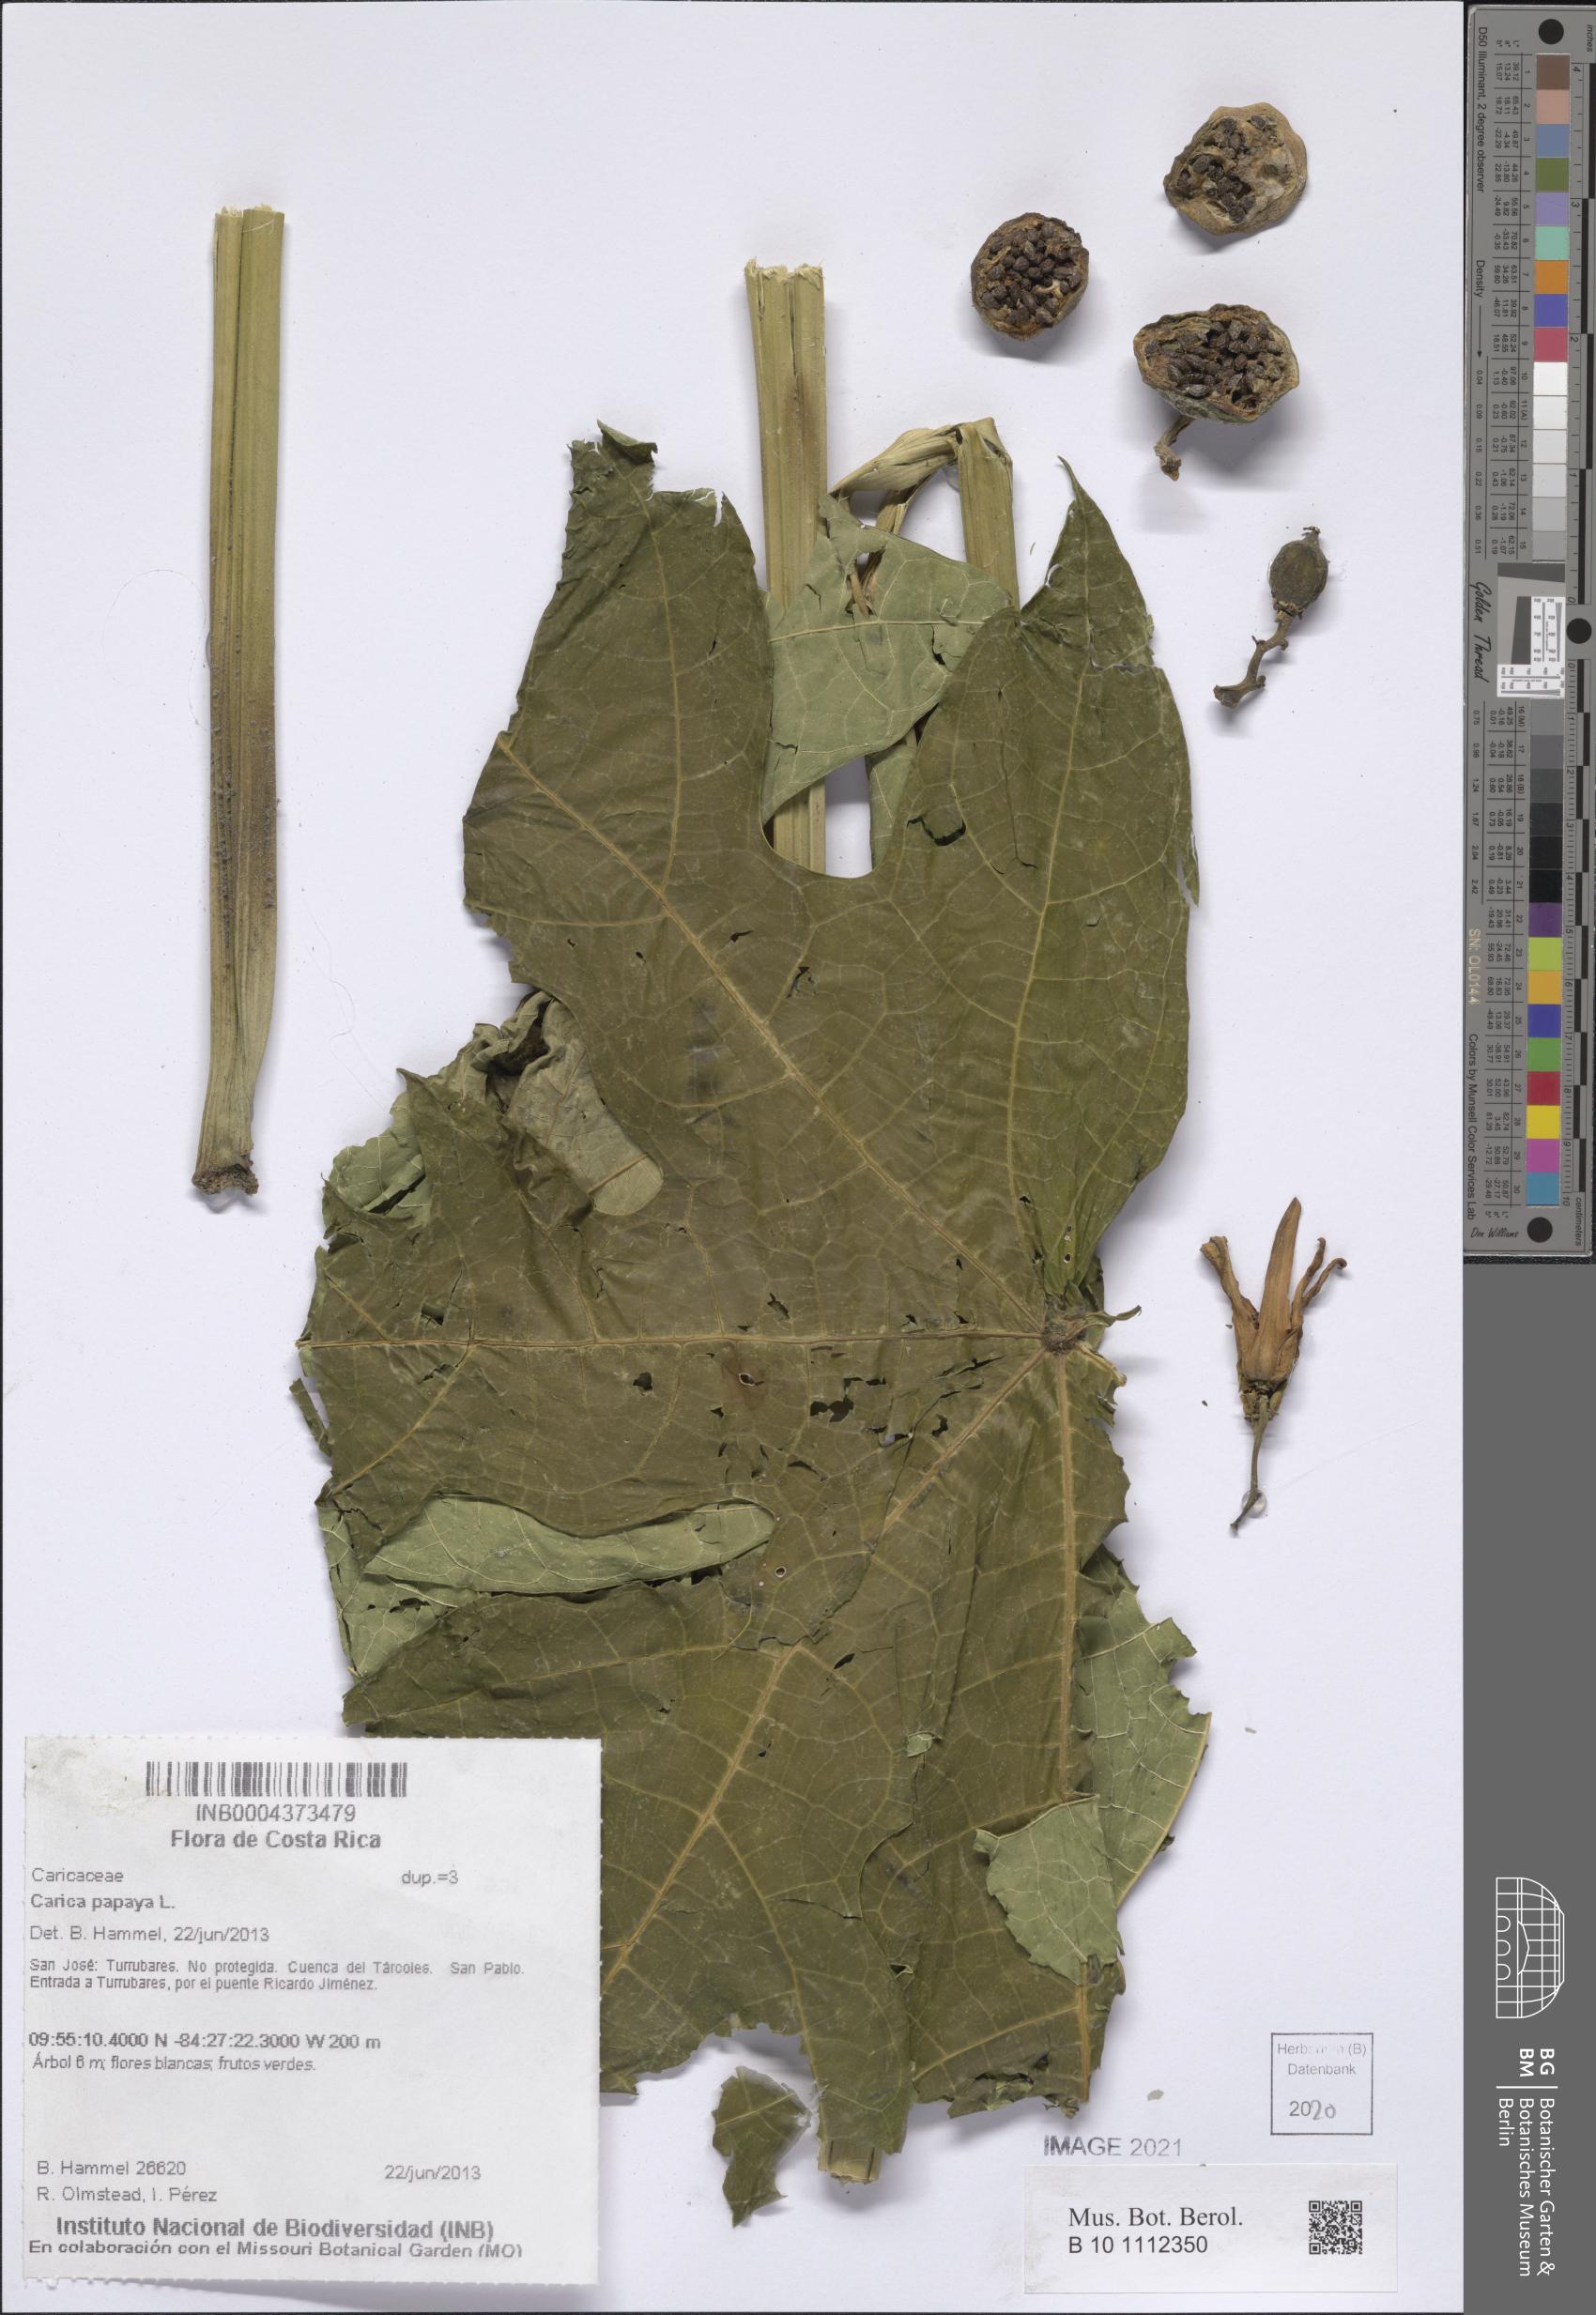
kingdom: Plantae
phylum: Tracheophyta
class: Magnoliopsida
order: Brassicales
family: Caricaceae
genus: Carica
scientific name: Carica papaya
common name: Papaya
